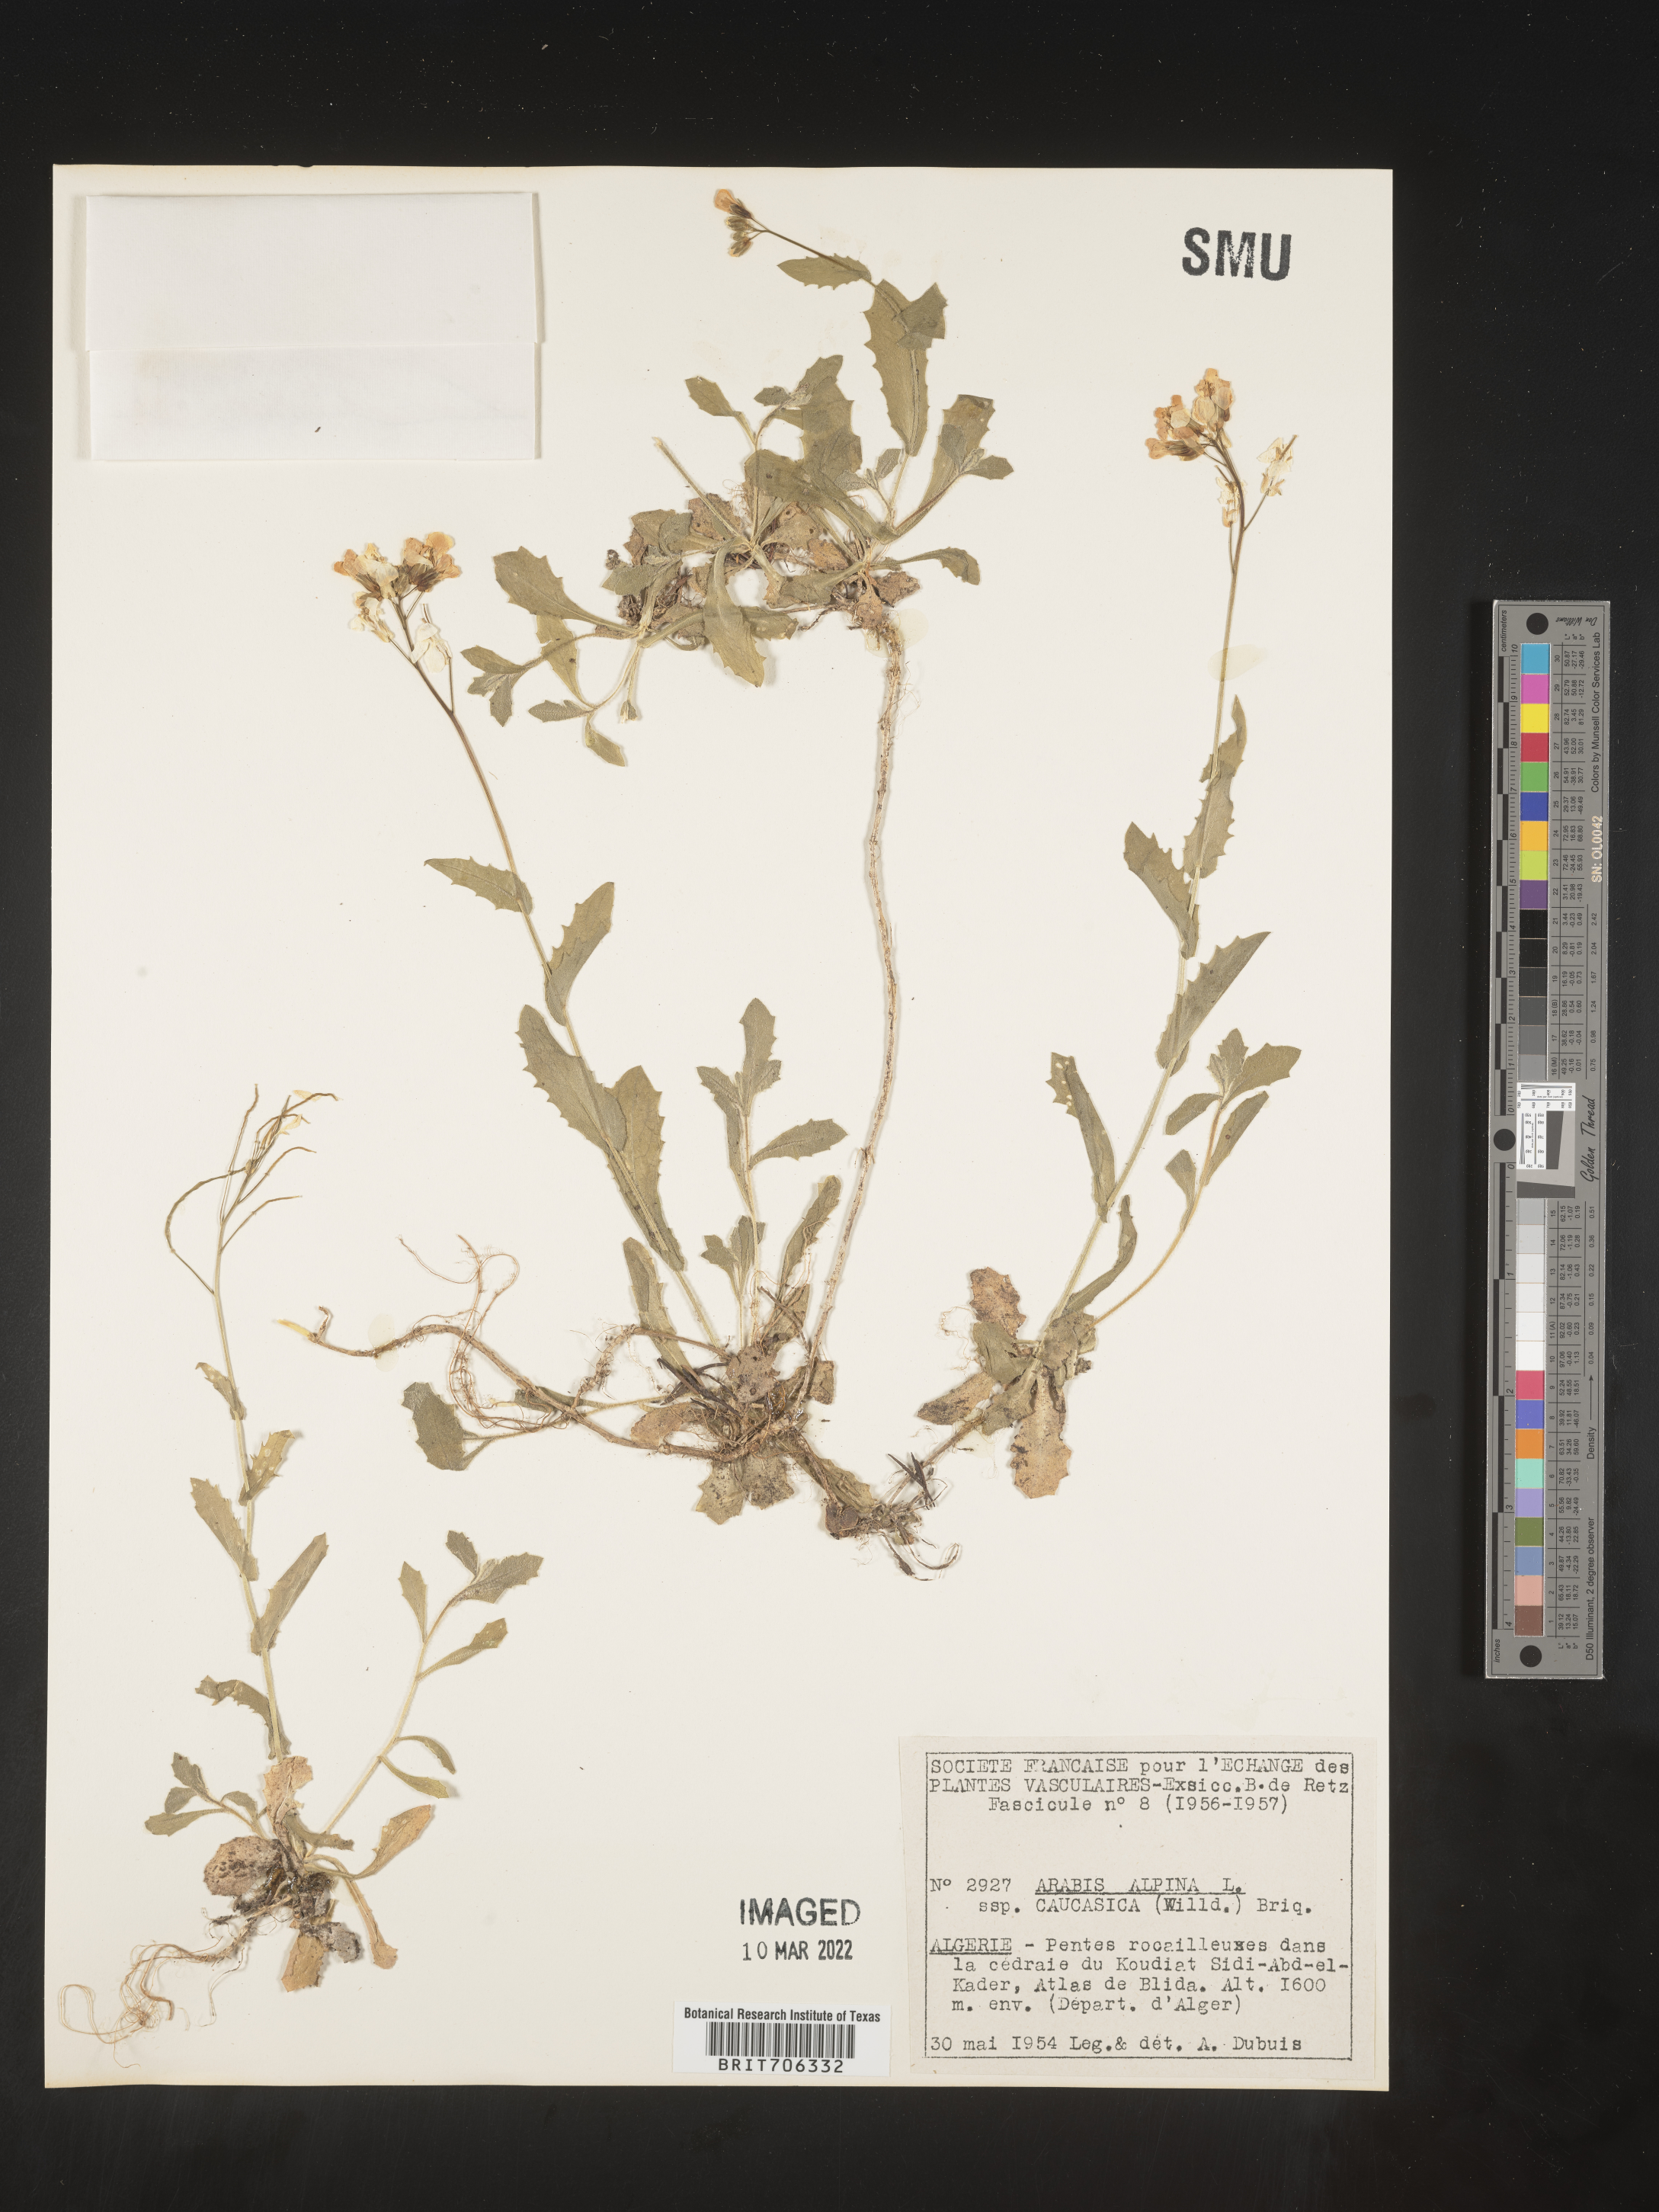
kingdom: Plantae
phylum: Tracheophyta
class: Magnoliopsida
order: Brassicales
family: Brassicaceae
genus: Arabis
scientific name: Arabis
